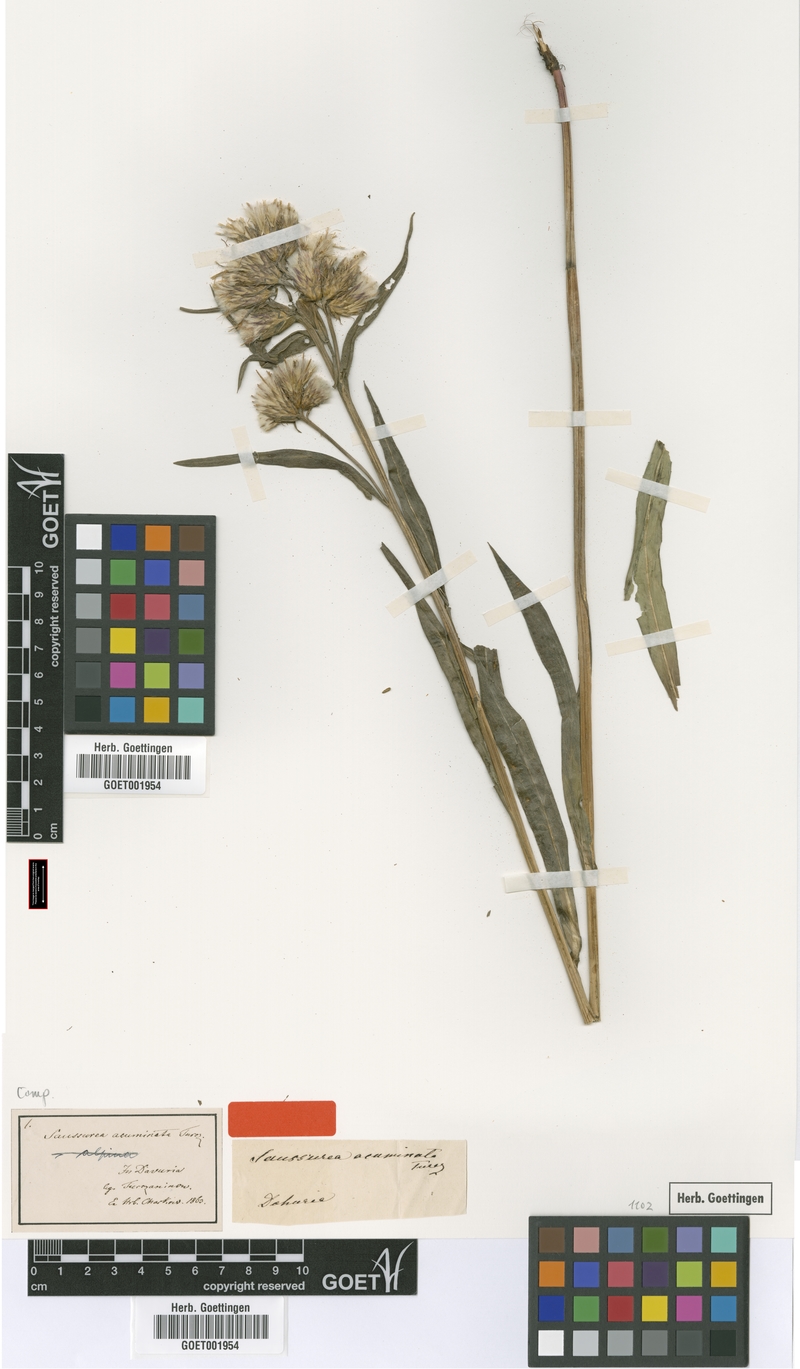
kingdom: Plantae
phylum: Tracheophyta
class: Magnoliopsida
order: Asterales
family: Asteraceae
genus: Saussurea
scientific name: Saussurea acuminata
